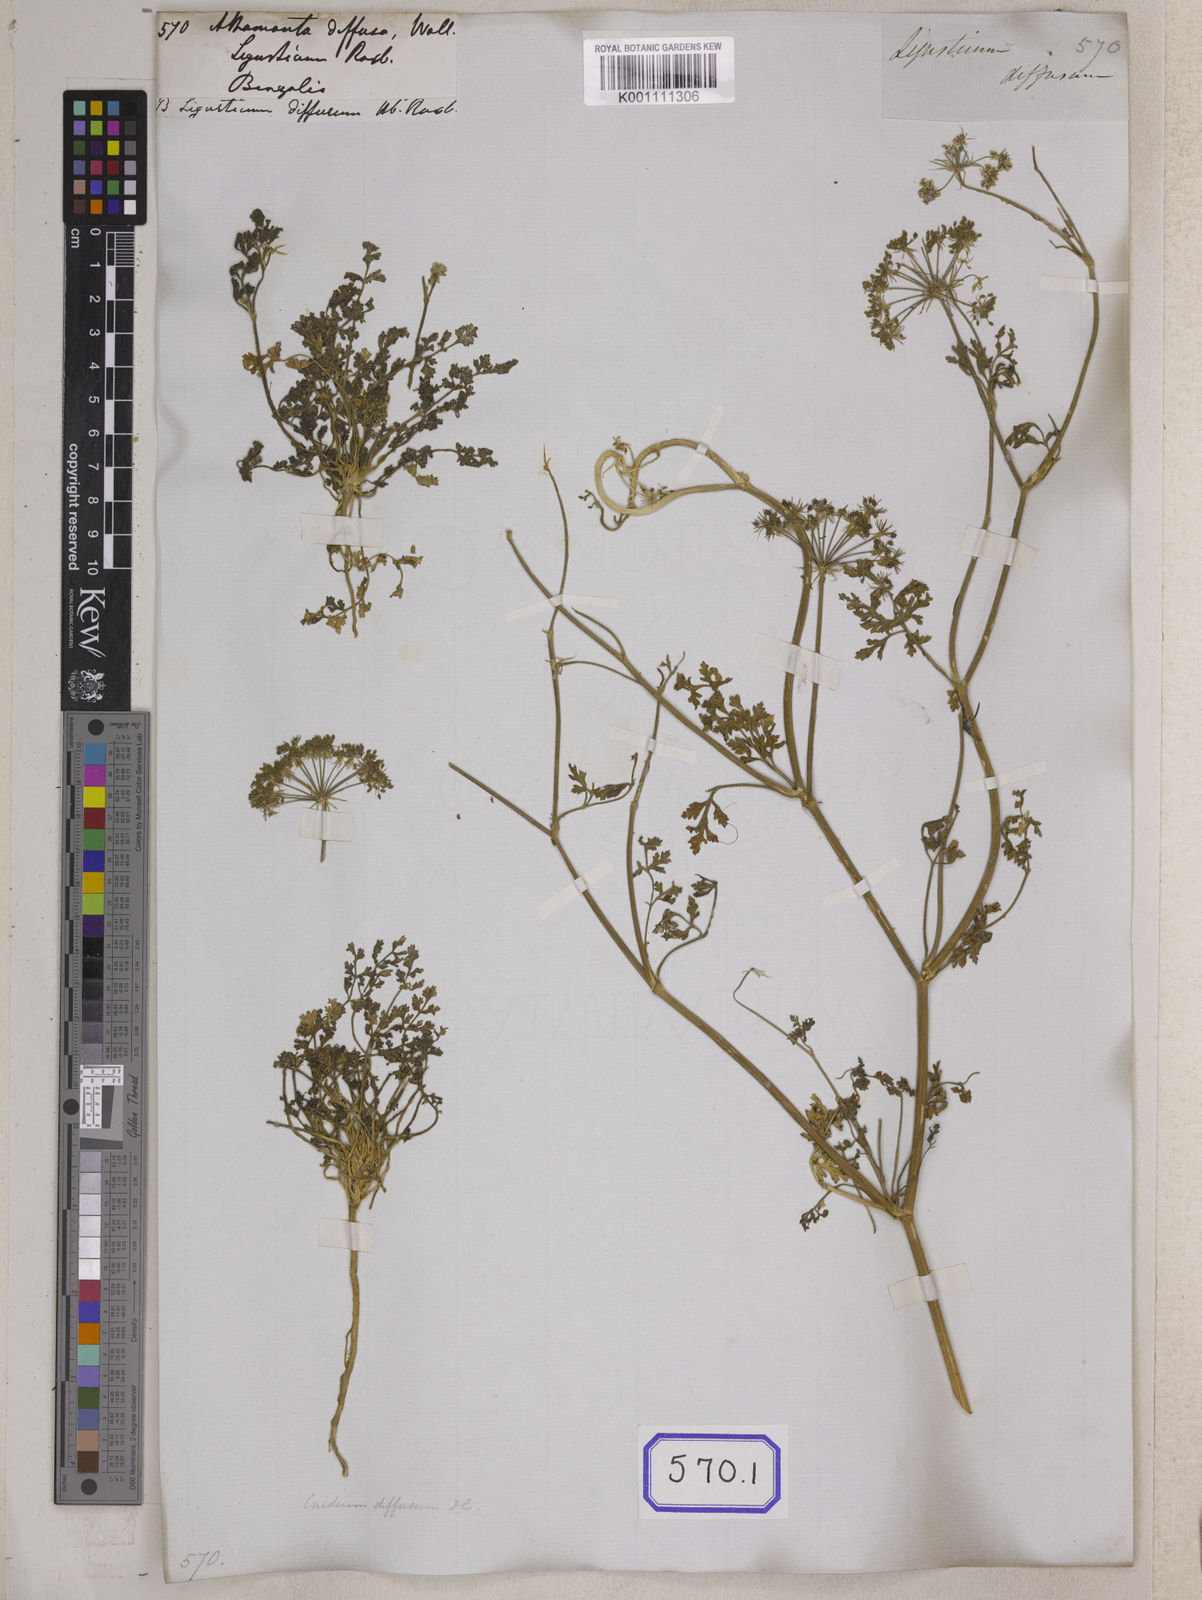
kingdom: Plantae
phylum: Tracheophyta
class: Magnoliopsida
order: Apiales
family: Apiaceae
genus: Athamanta
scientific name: Athamanta
